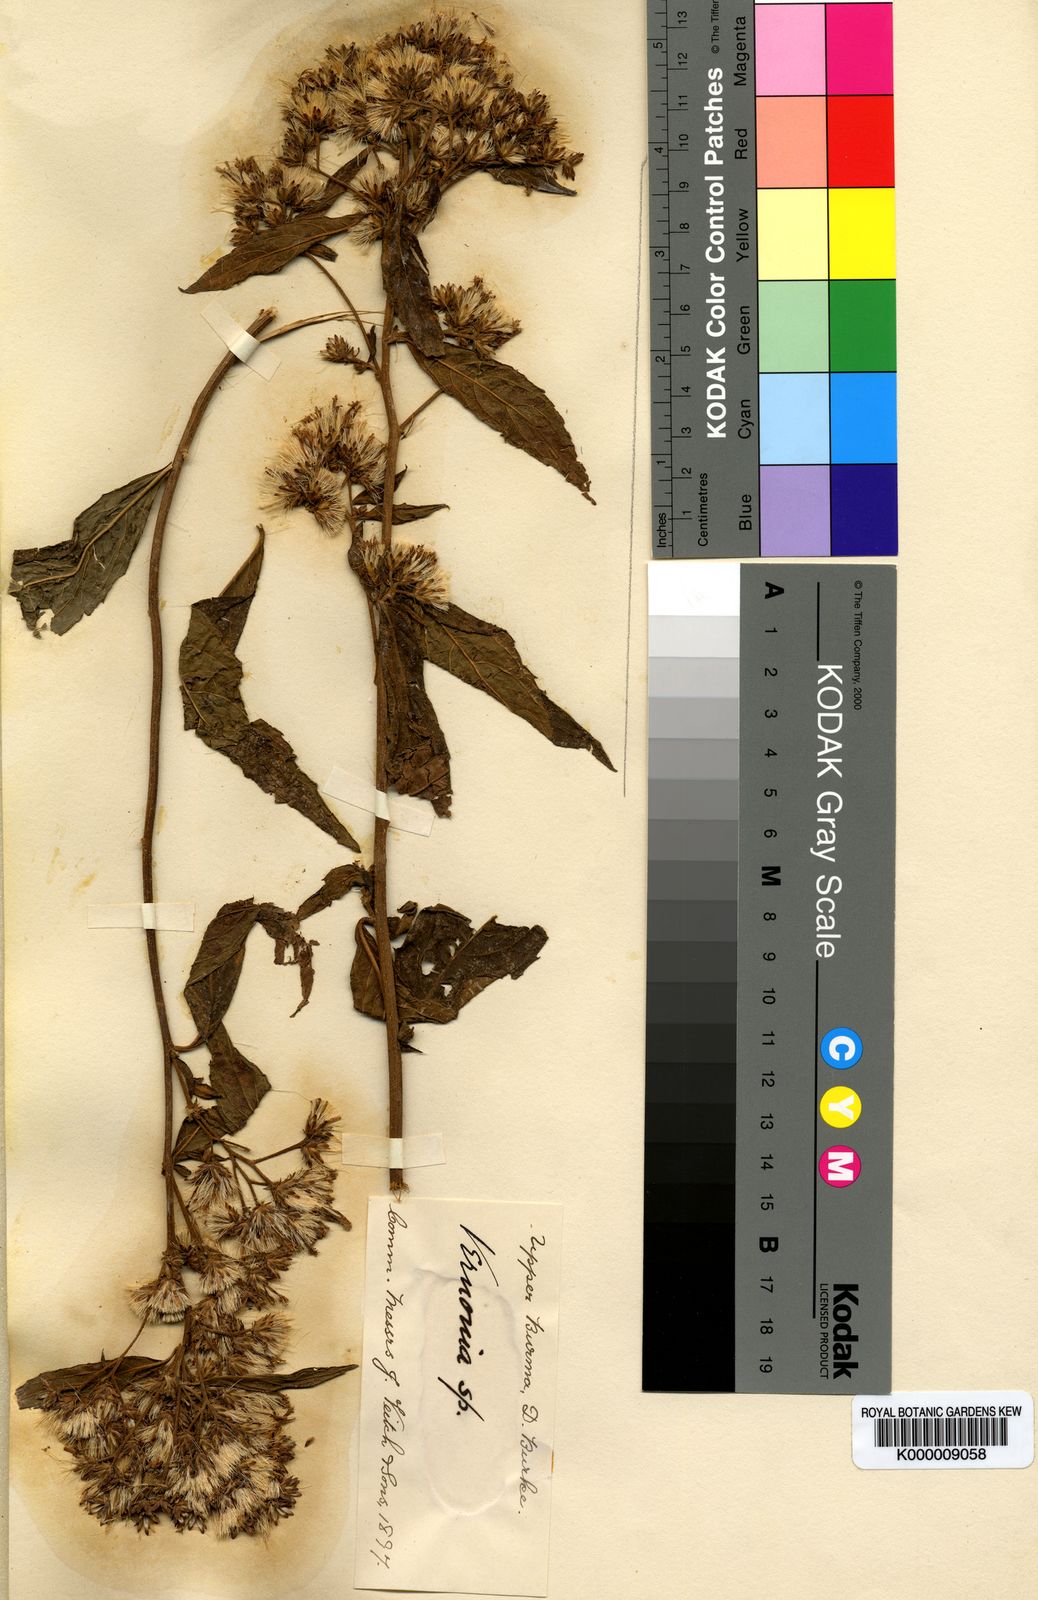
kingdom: Plantae
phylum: Tracheophyta
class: Magnoliopsida
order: Asterales
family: Asteraceae
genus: Vernonia
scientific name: Vernonia
